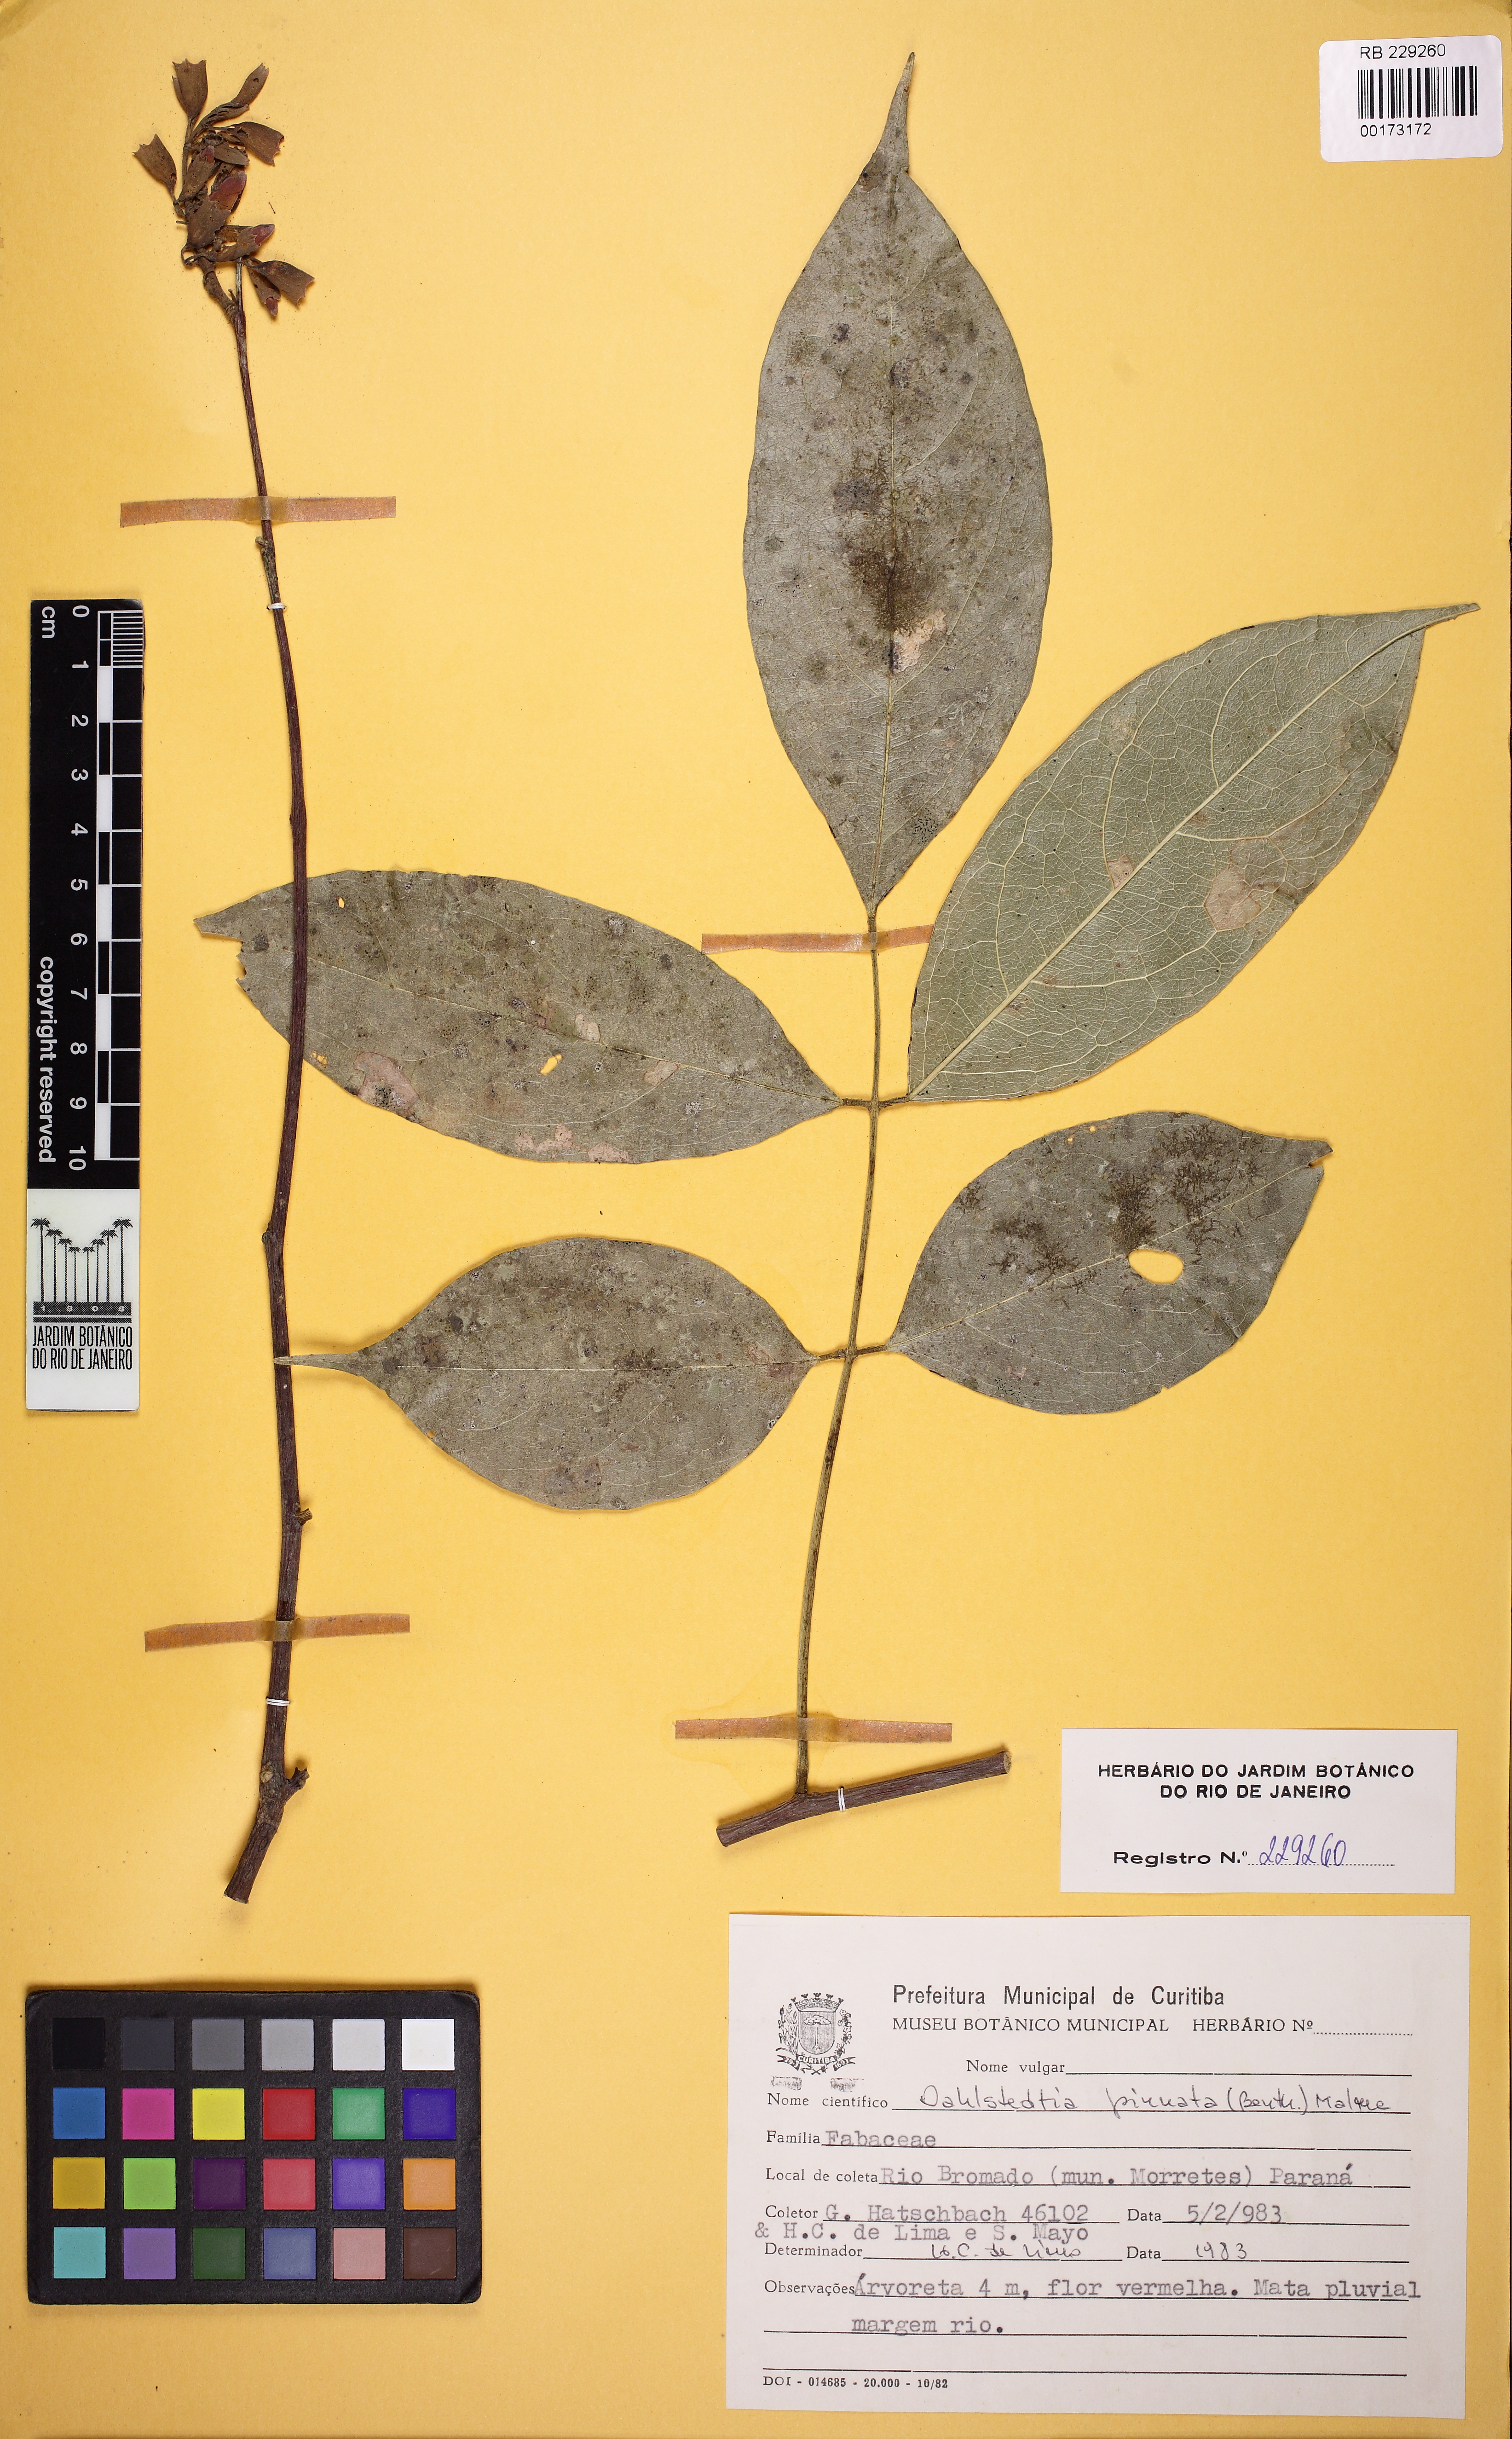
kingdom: Plantae
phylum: Tracheophyta
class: Magnoliopsida
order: Fabales
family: Fabaceae
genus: Dahlstedtia
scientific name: Dahlstedtia pinnata
